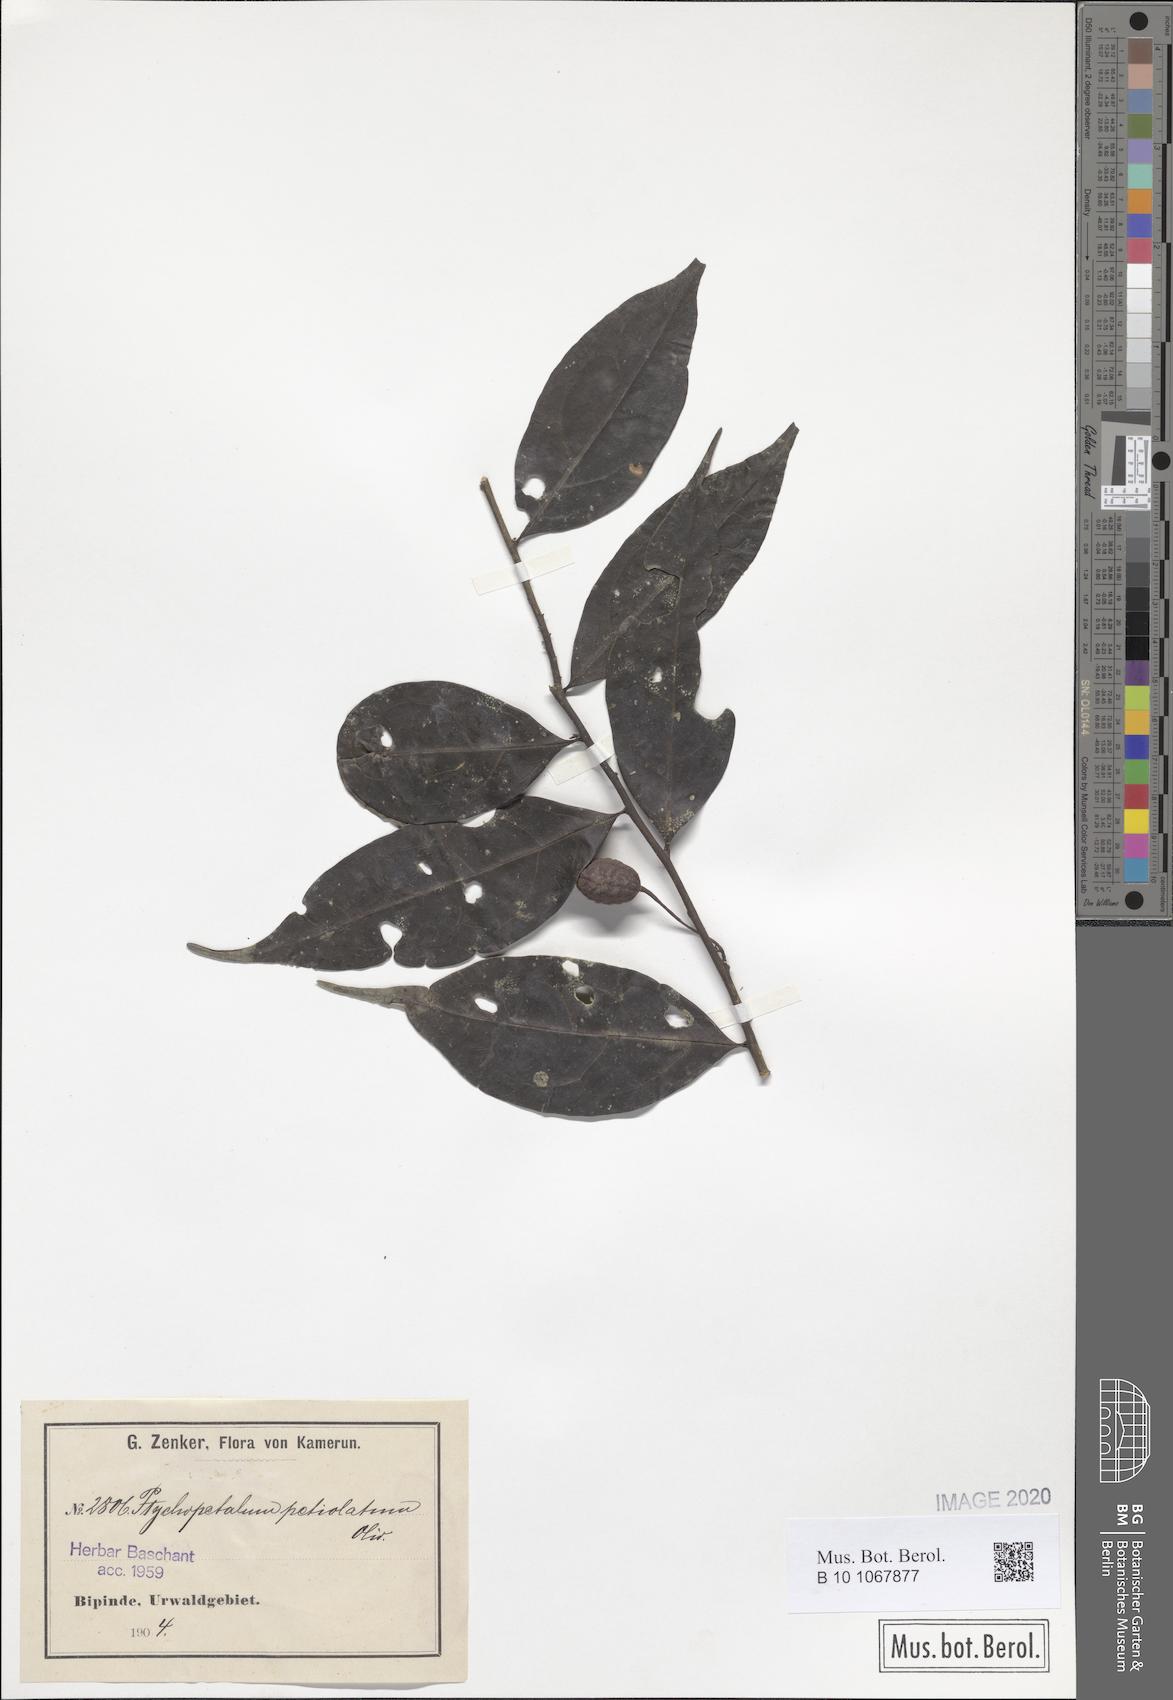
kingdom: Plantae
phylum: Tracheophyta
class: Magnoliopsida
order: Santalales
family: Olacaceae
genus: Ptychopetalum
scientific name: Ptychopetalum petiolatum
